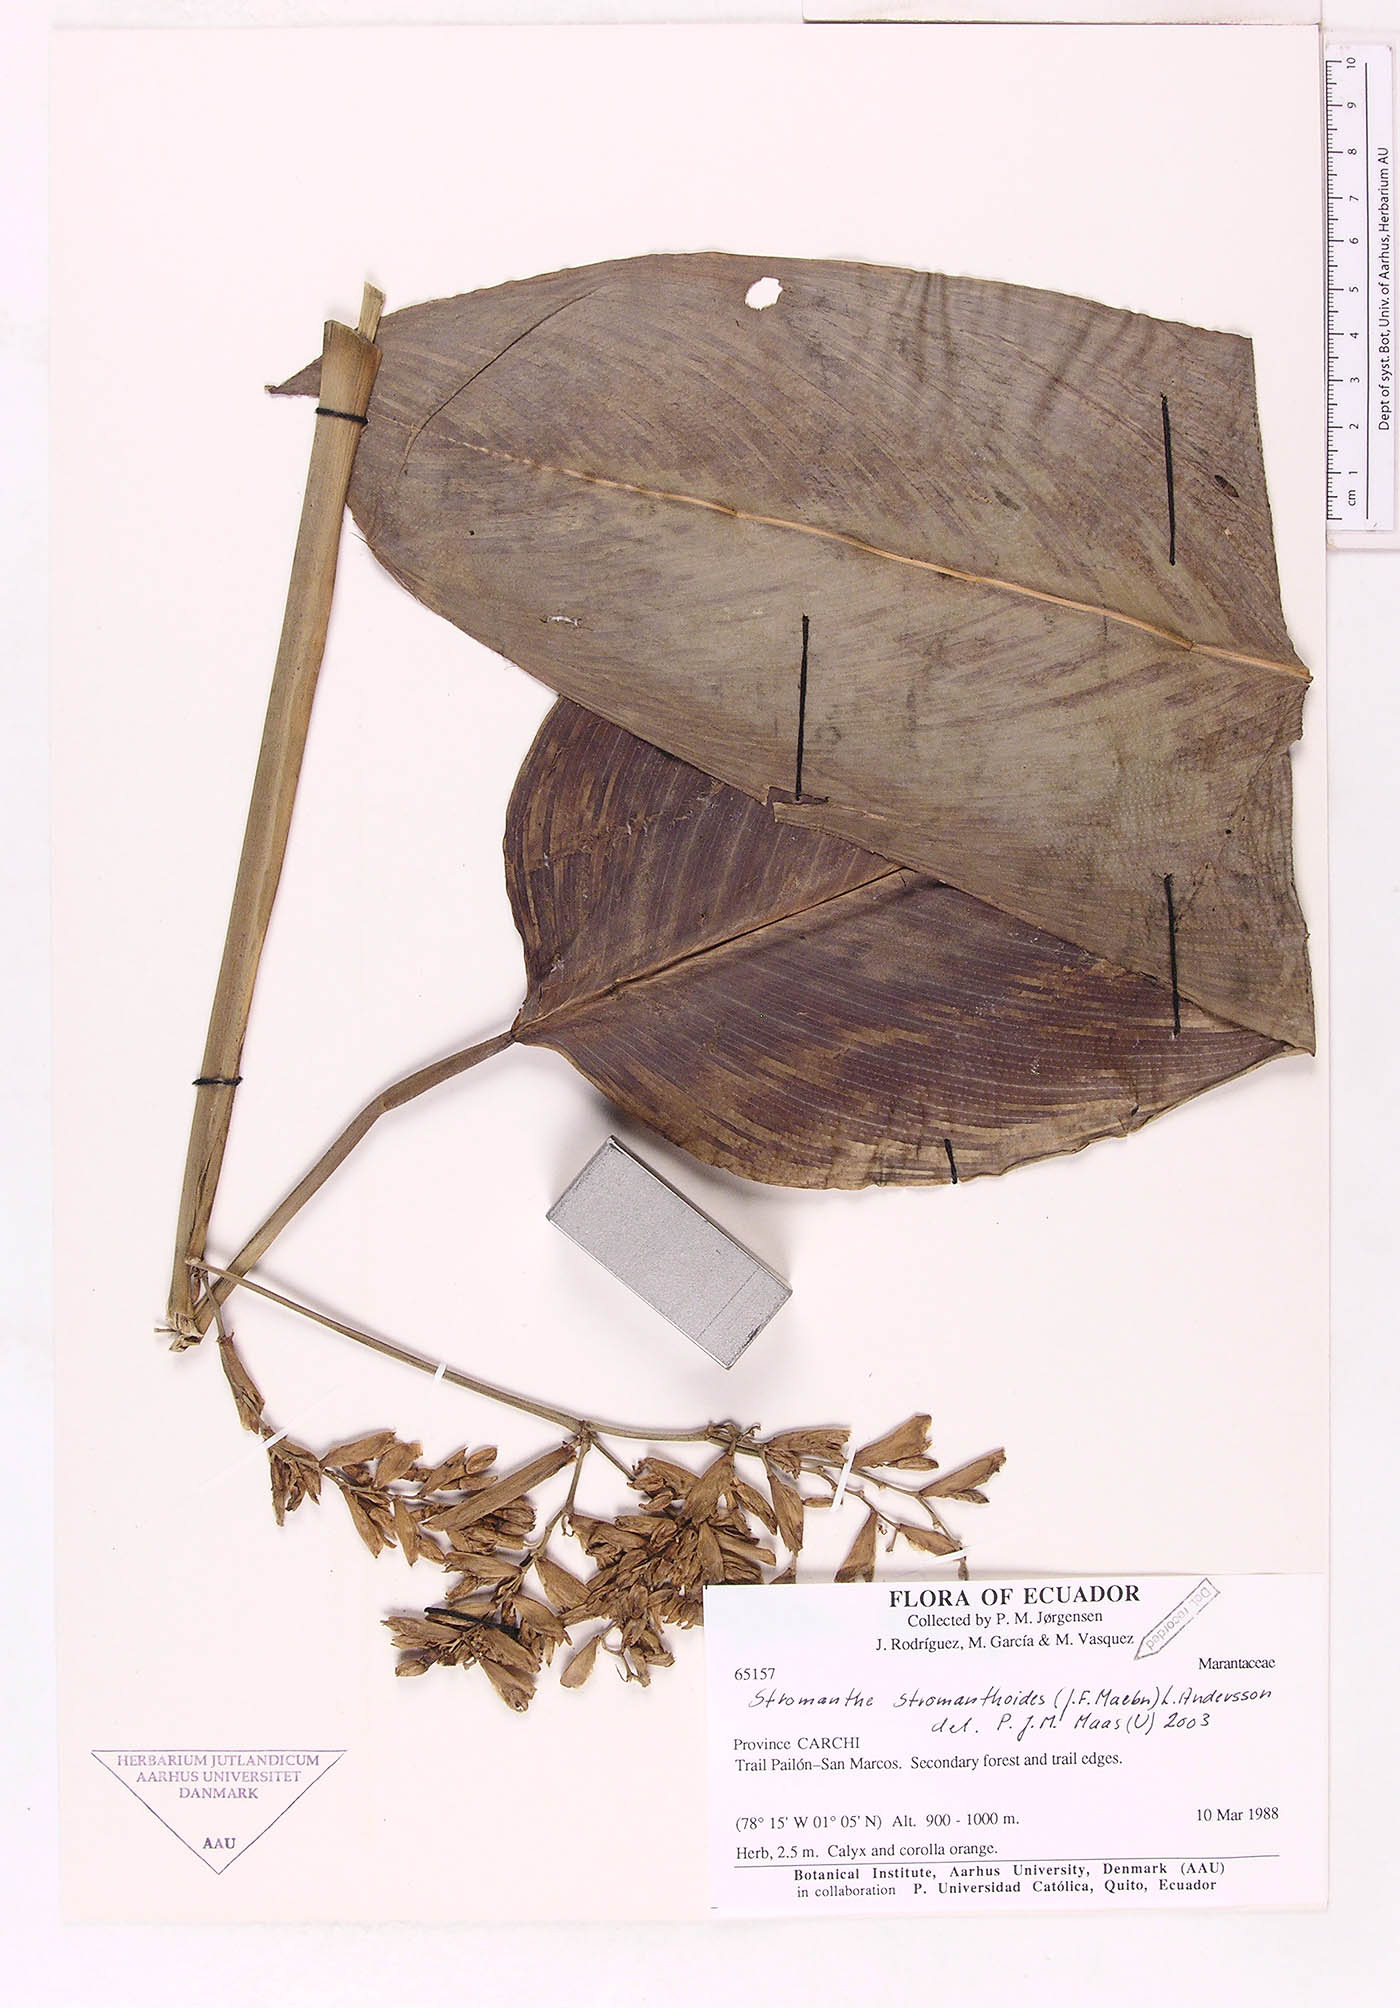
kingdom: Plantae
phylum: Tracheophyta
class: Liliopsida
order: Zingiberales
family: Marantaceae
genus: Stromanthe
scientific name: Stromanthe stromanthoides
